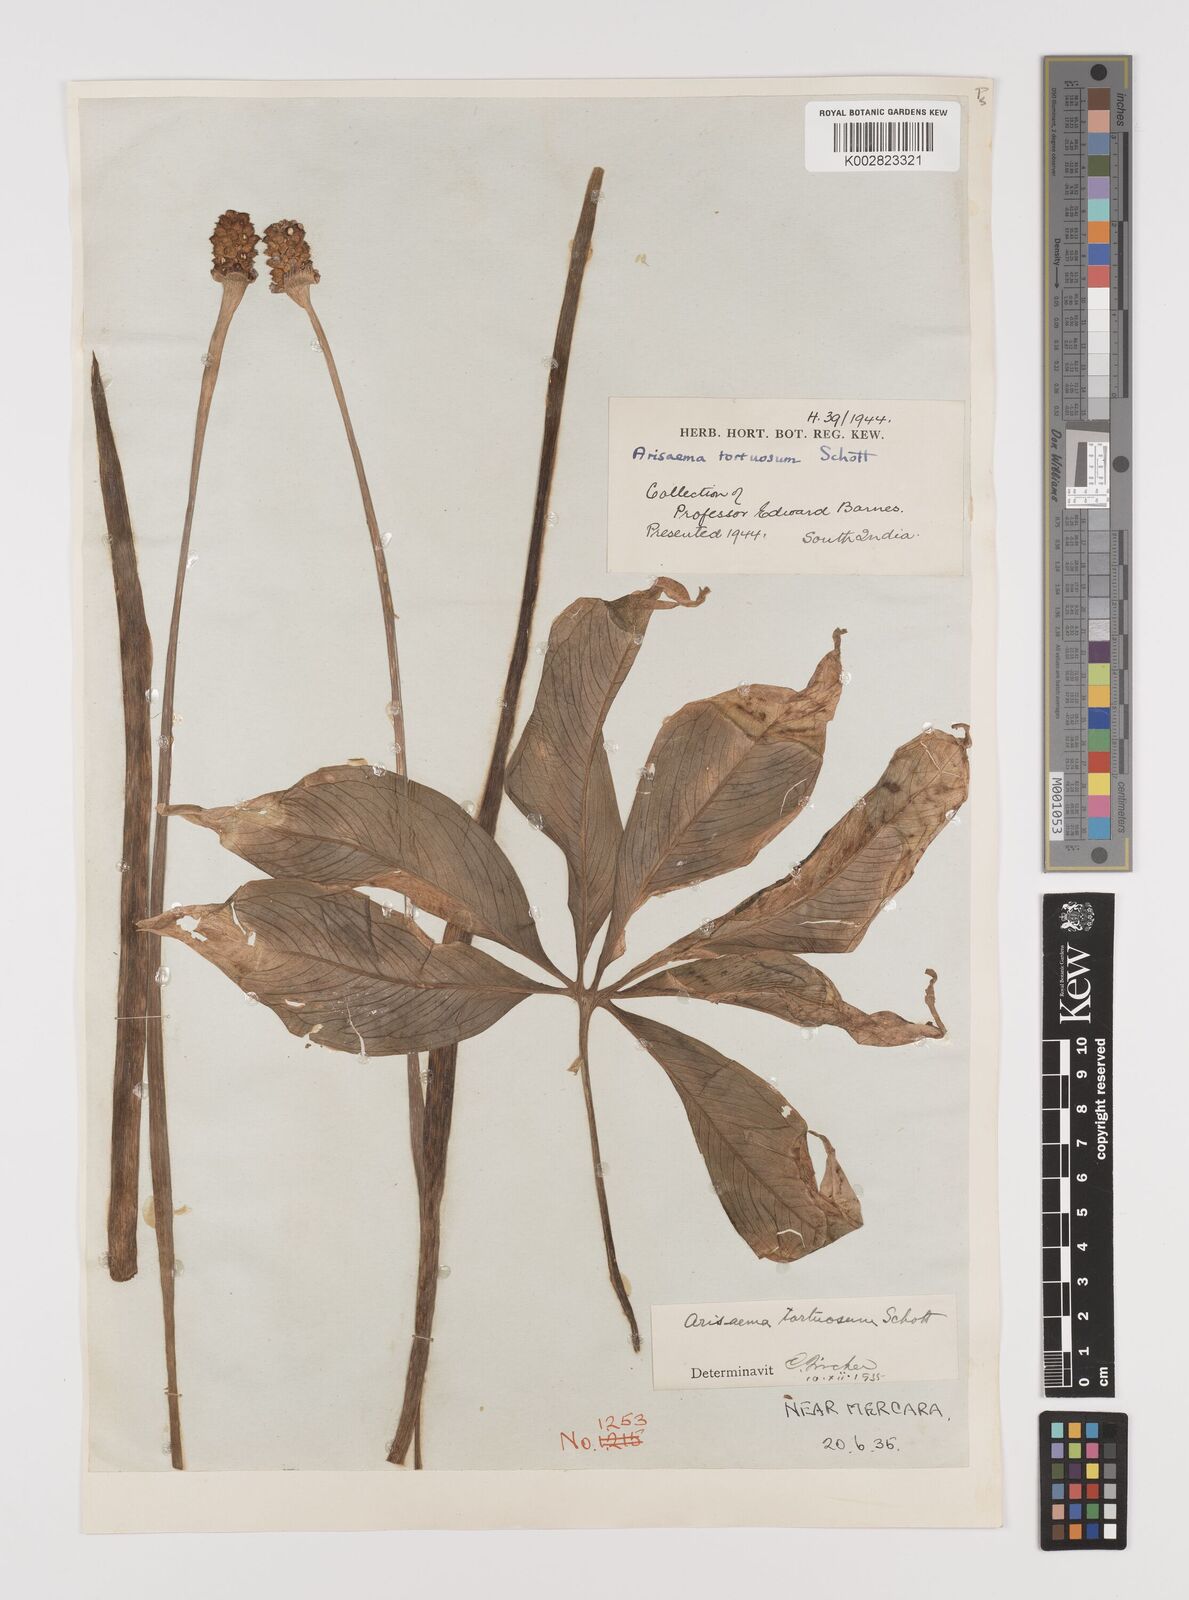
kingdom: Plantae
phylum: Tracheophyta
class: Liliopsida
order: Alismatales
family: Araceae
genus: Arisaema
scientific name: Arisaema tortuosum
